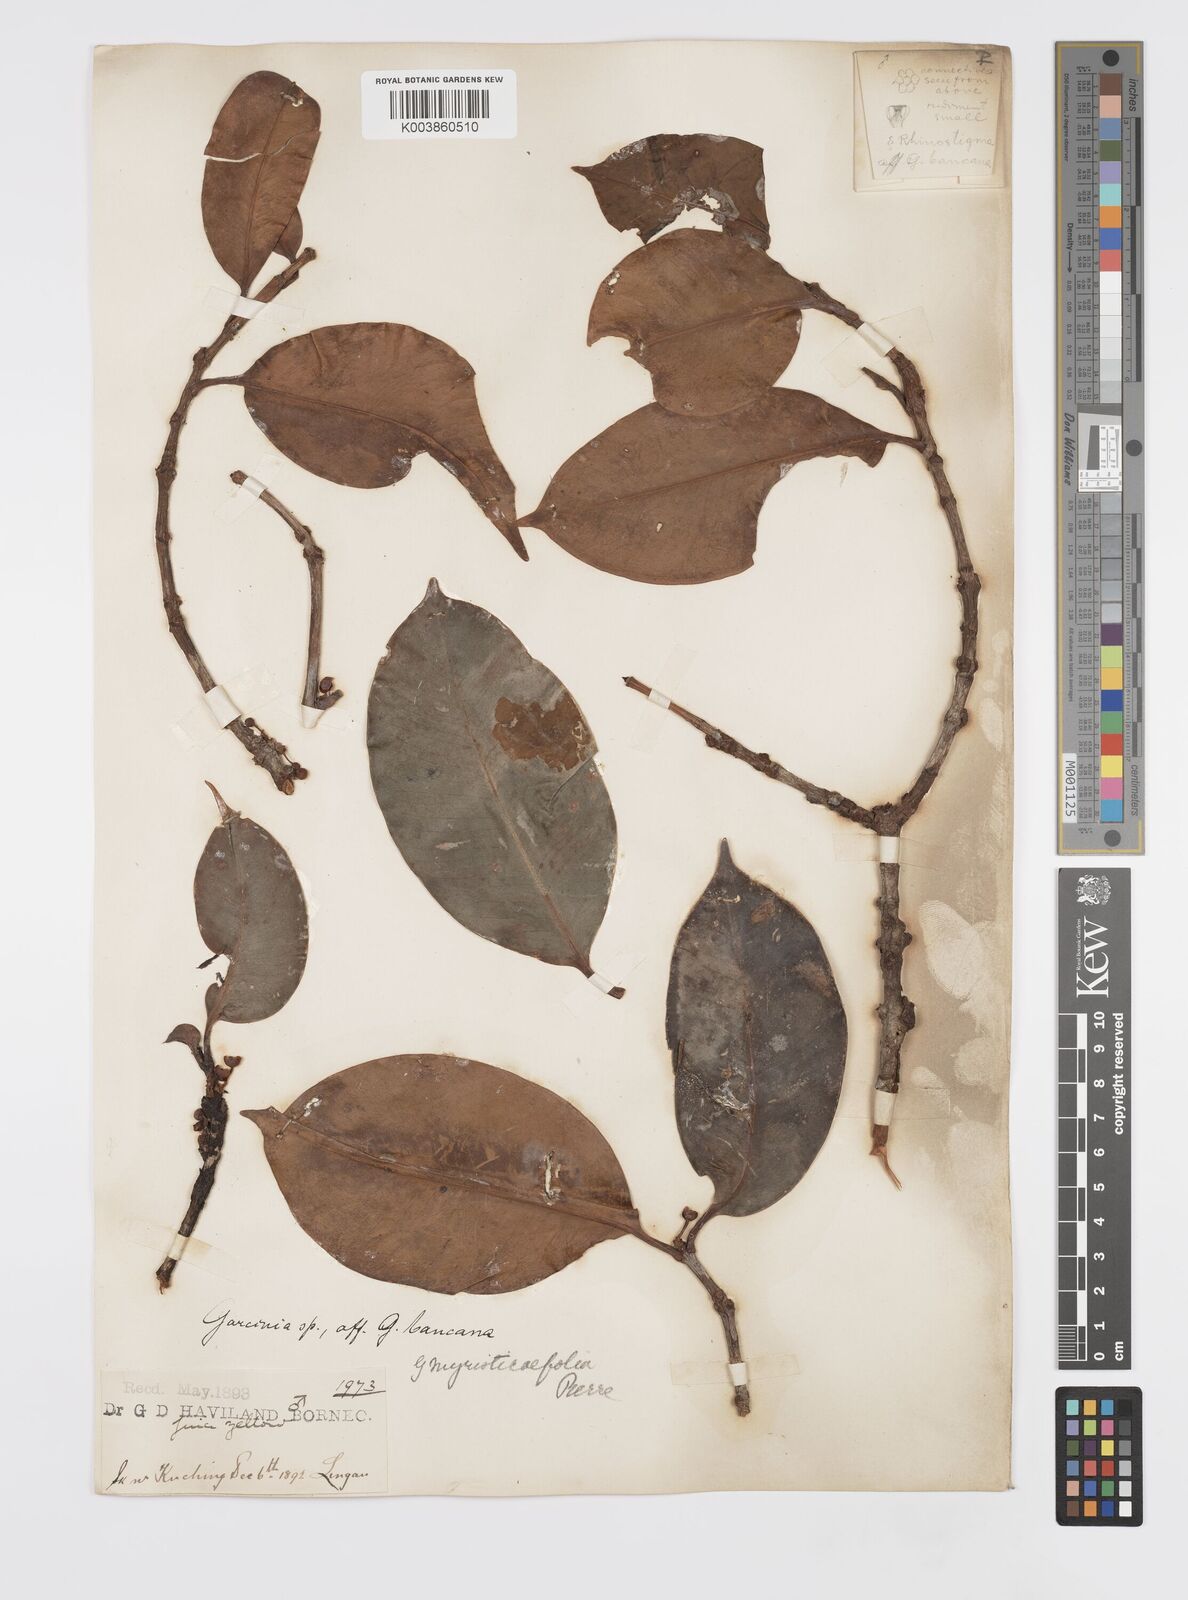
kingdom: Plantae
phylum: Tracheophyta
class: Magnoliopsida
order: Malpighiales
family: Clusiaceae
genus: Garcinia
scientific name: Garcinia myristicifolia
